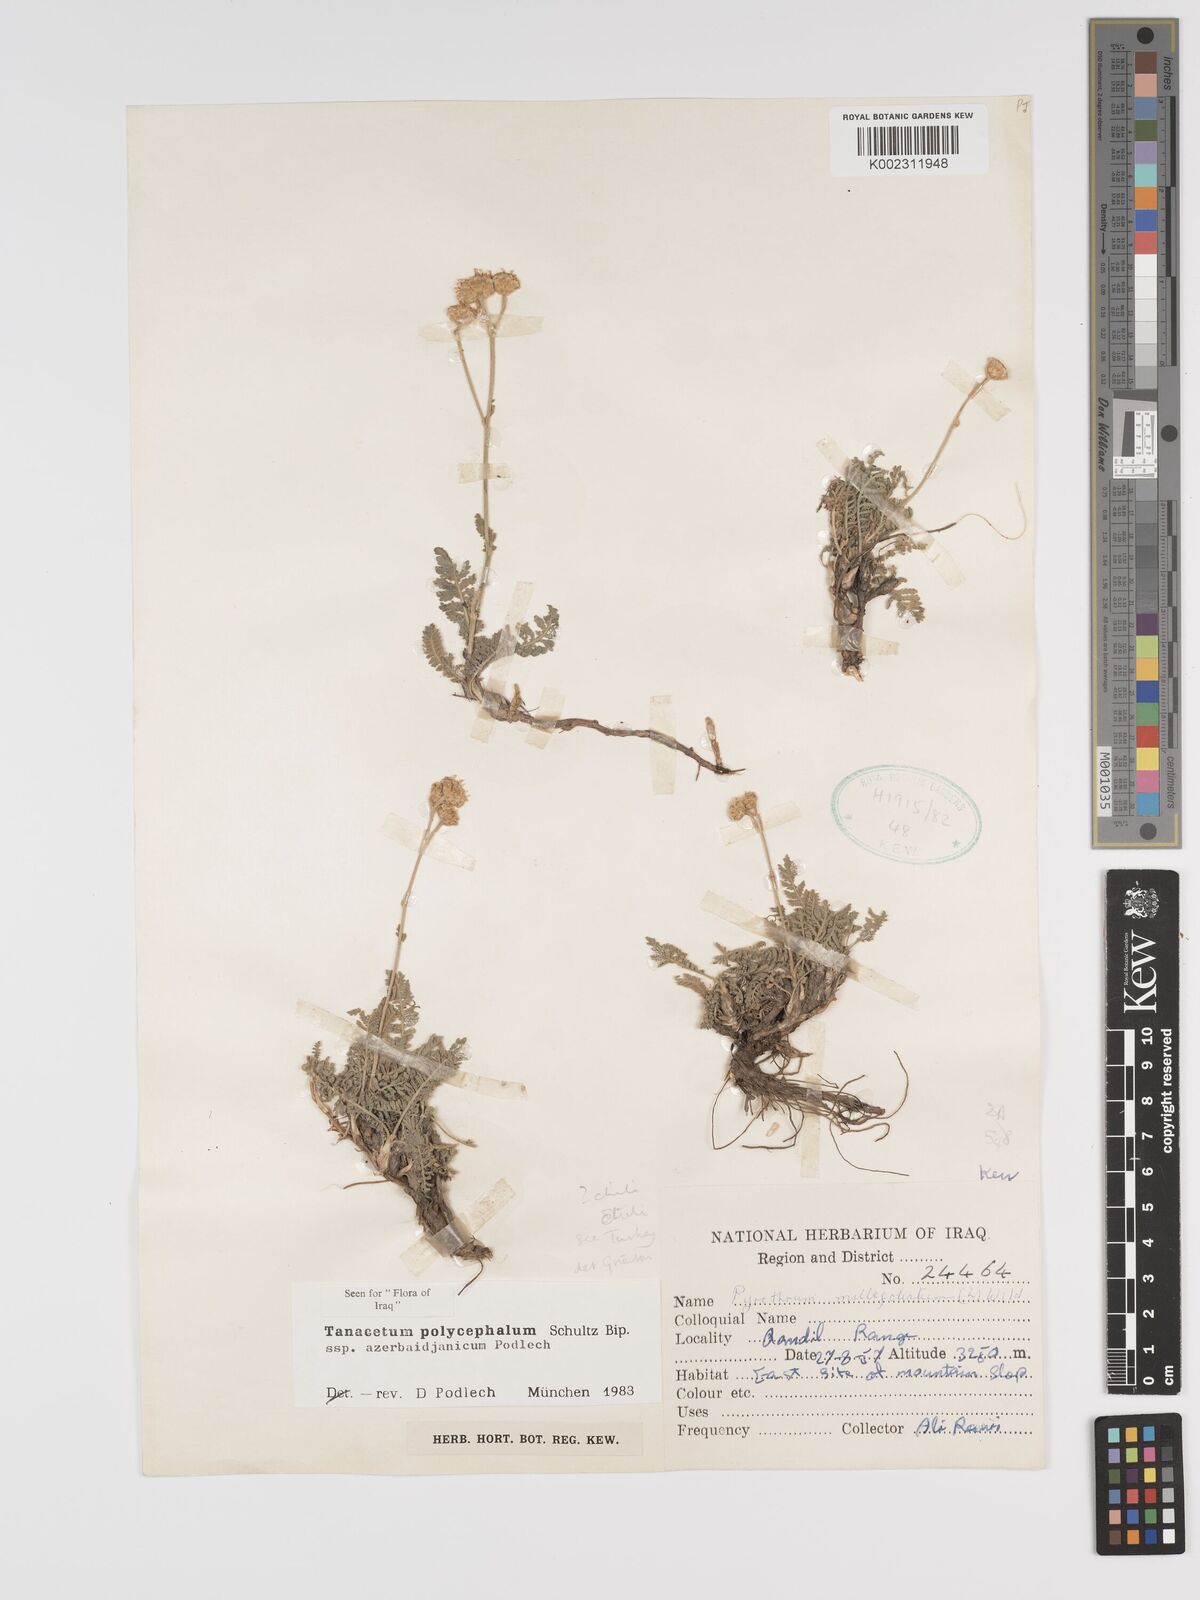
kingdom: Plantae
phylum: Tracheophyta
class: Magnoliopsida
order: Asterales
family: Asteraceae
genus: Tanacetum
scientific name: Tanacetum polycephalum
